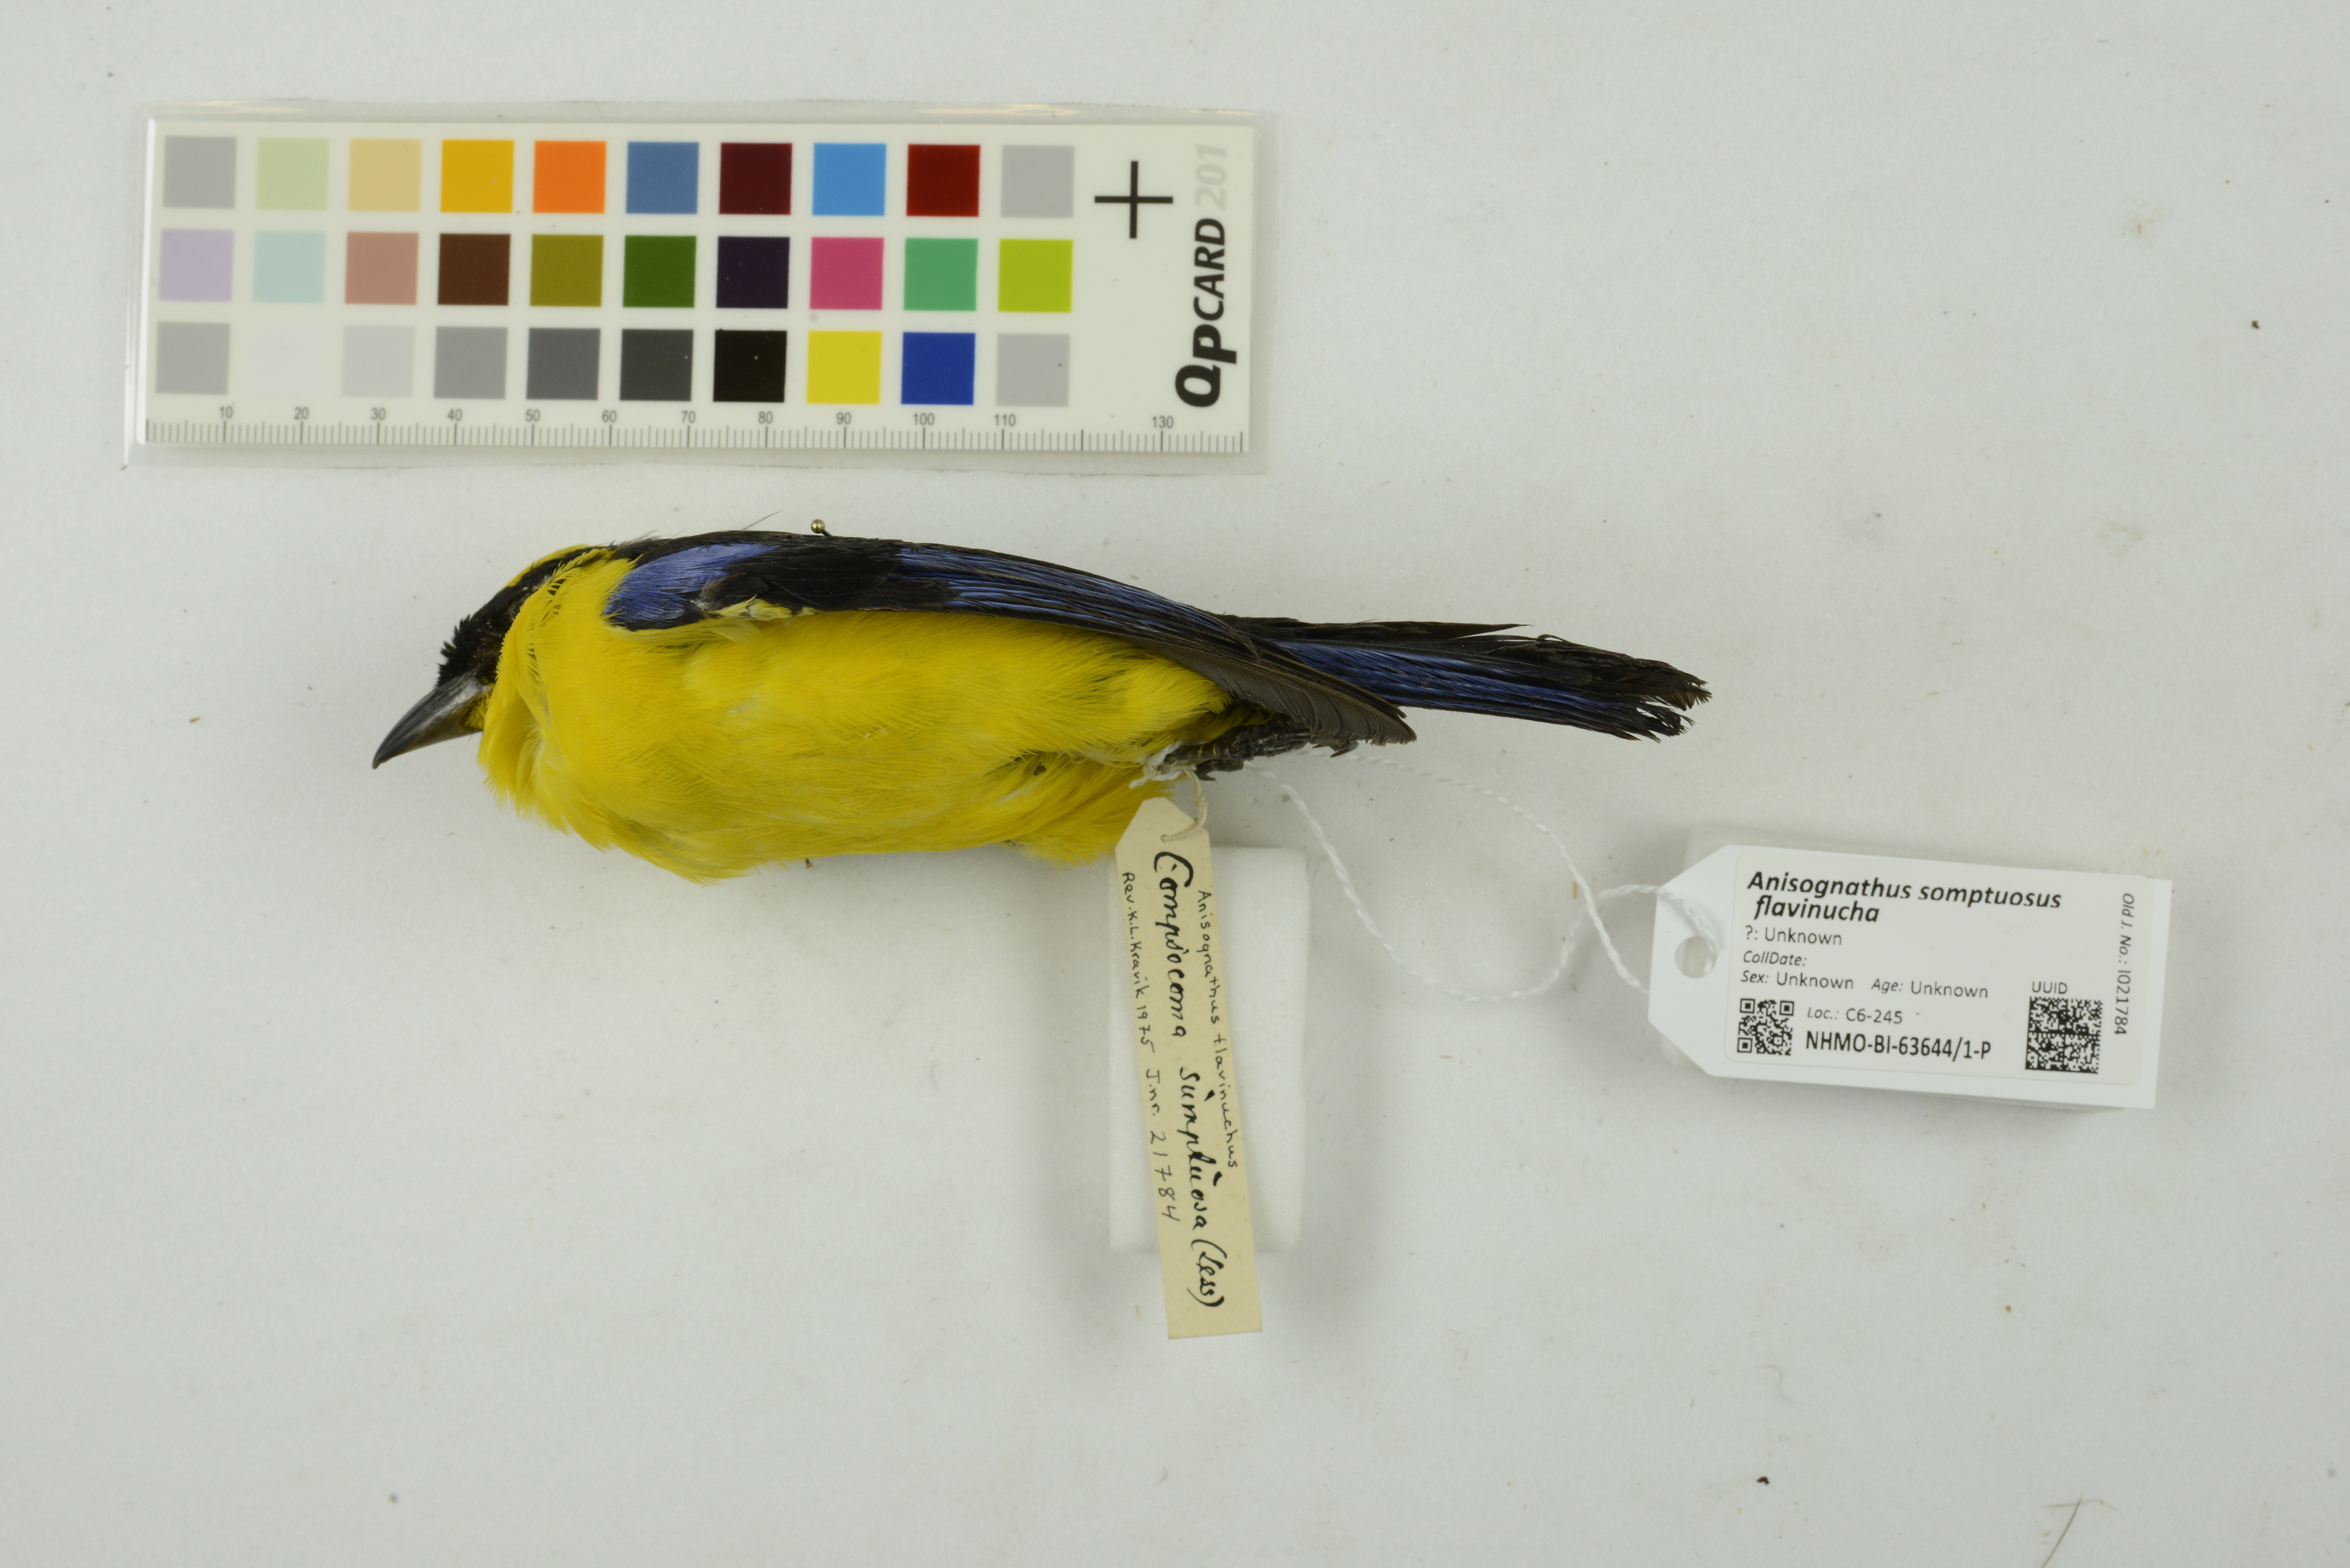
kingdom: Animalia
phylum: Chordata
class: Aves
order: Passeriformes
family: Thraupidae
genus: Anisognathus
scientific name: Anisognathus somptuosus
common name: Blue-winged mountain-tanager
